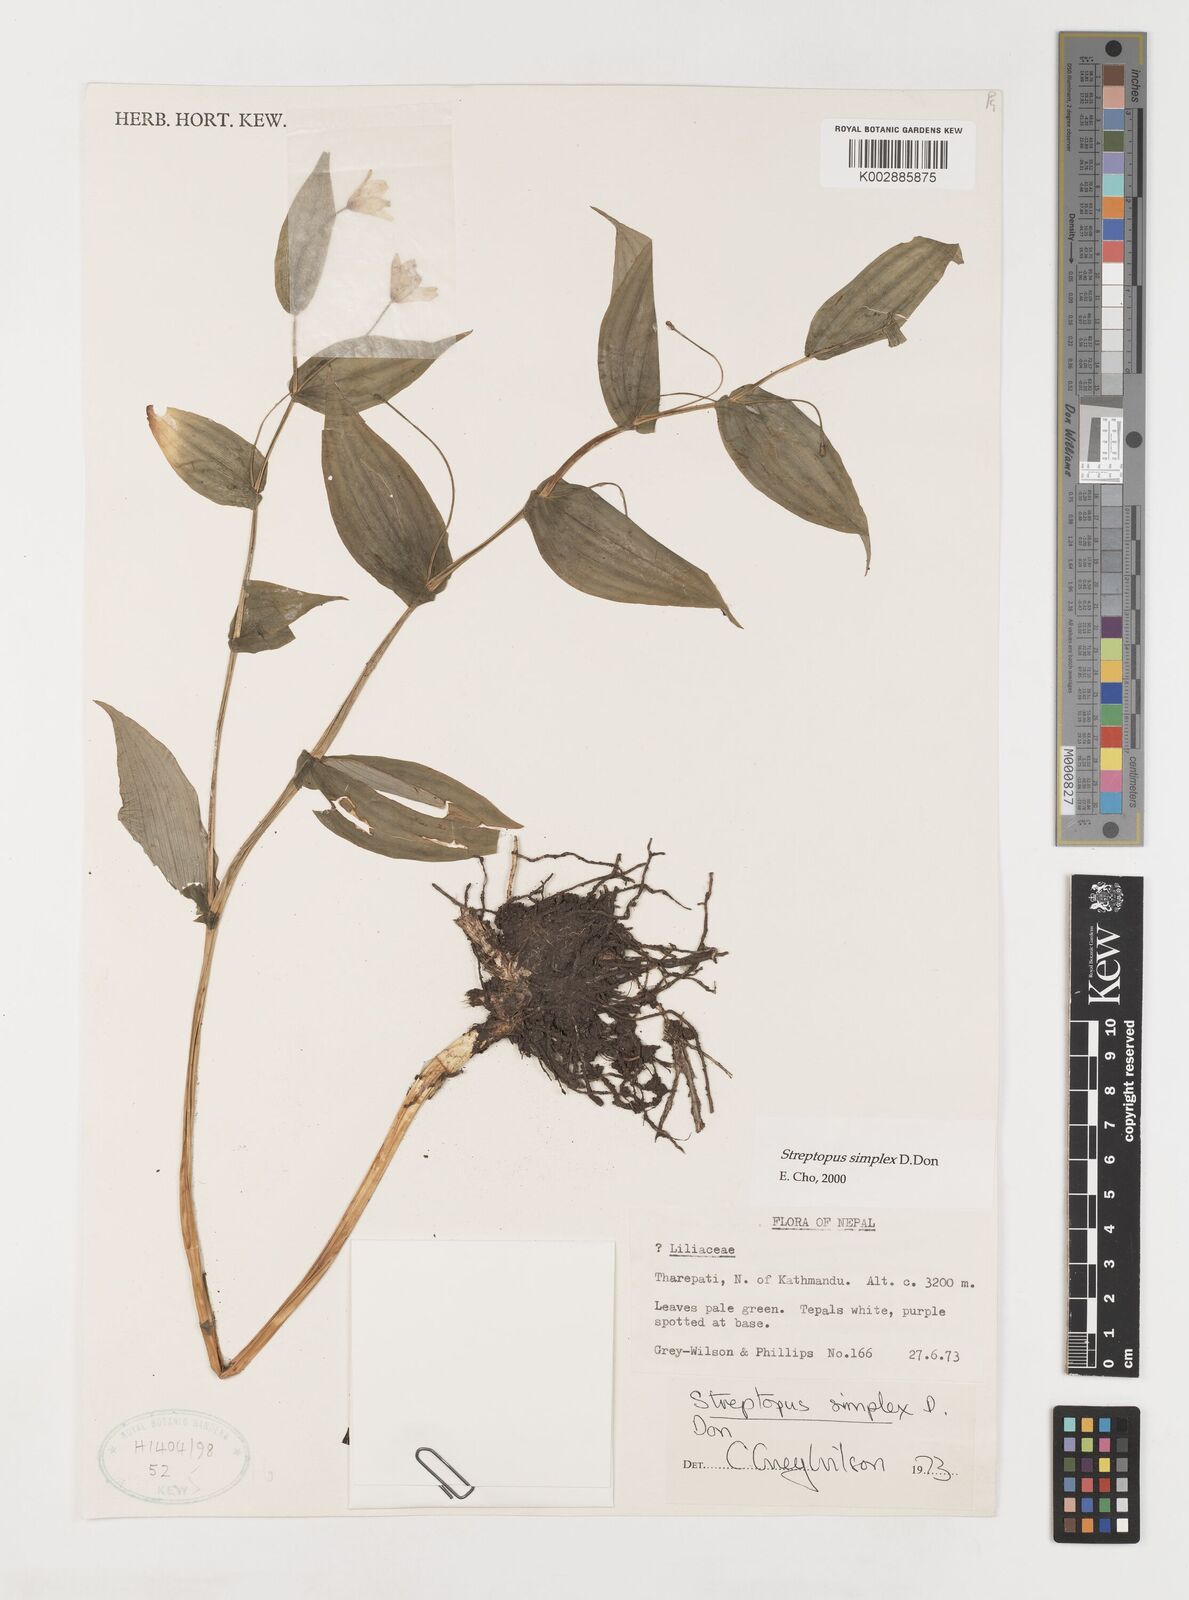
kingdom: Plantae
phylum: Tracheophyta
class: Liliopsida
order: Liliales
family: Liliaceae
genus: Streptopus
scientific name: Streptopus simplex
